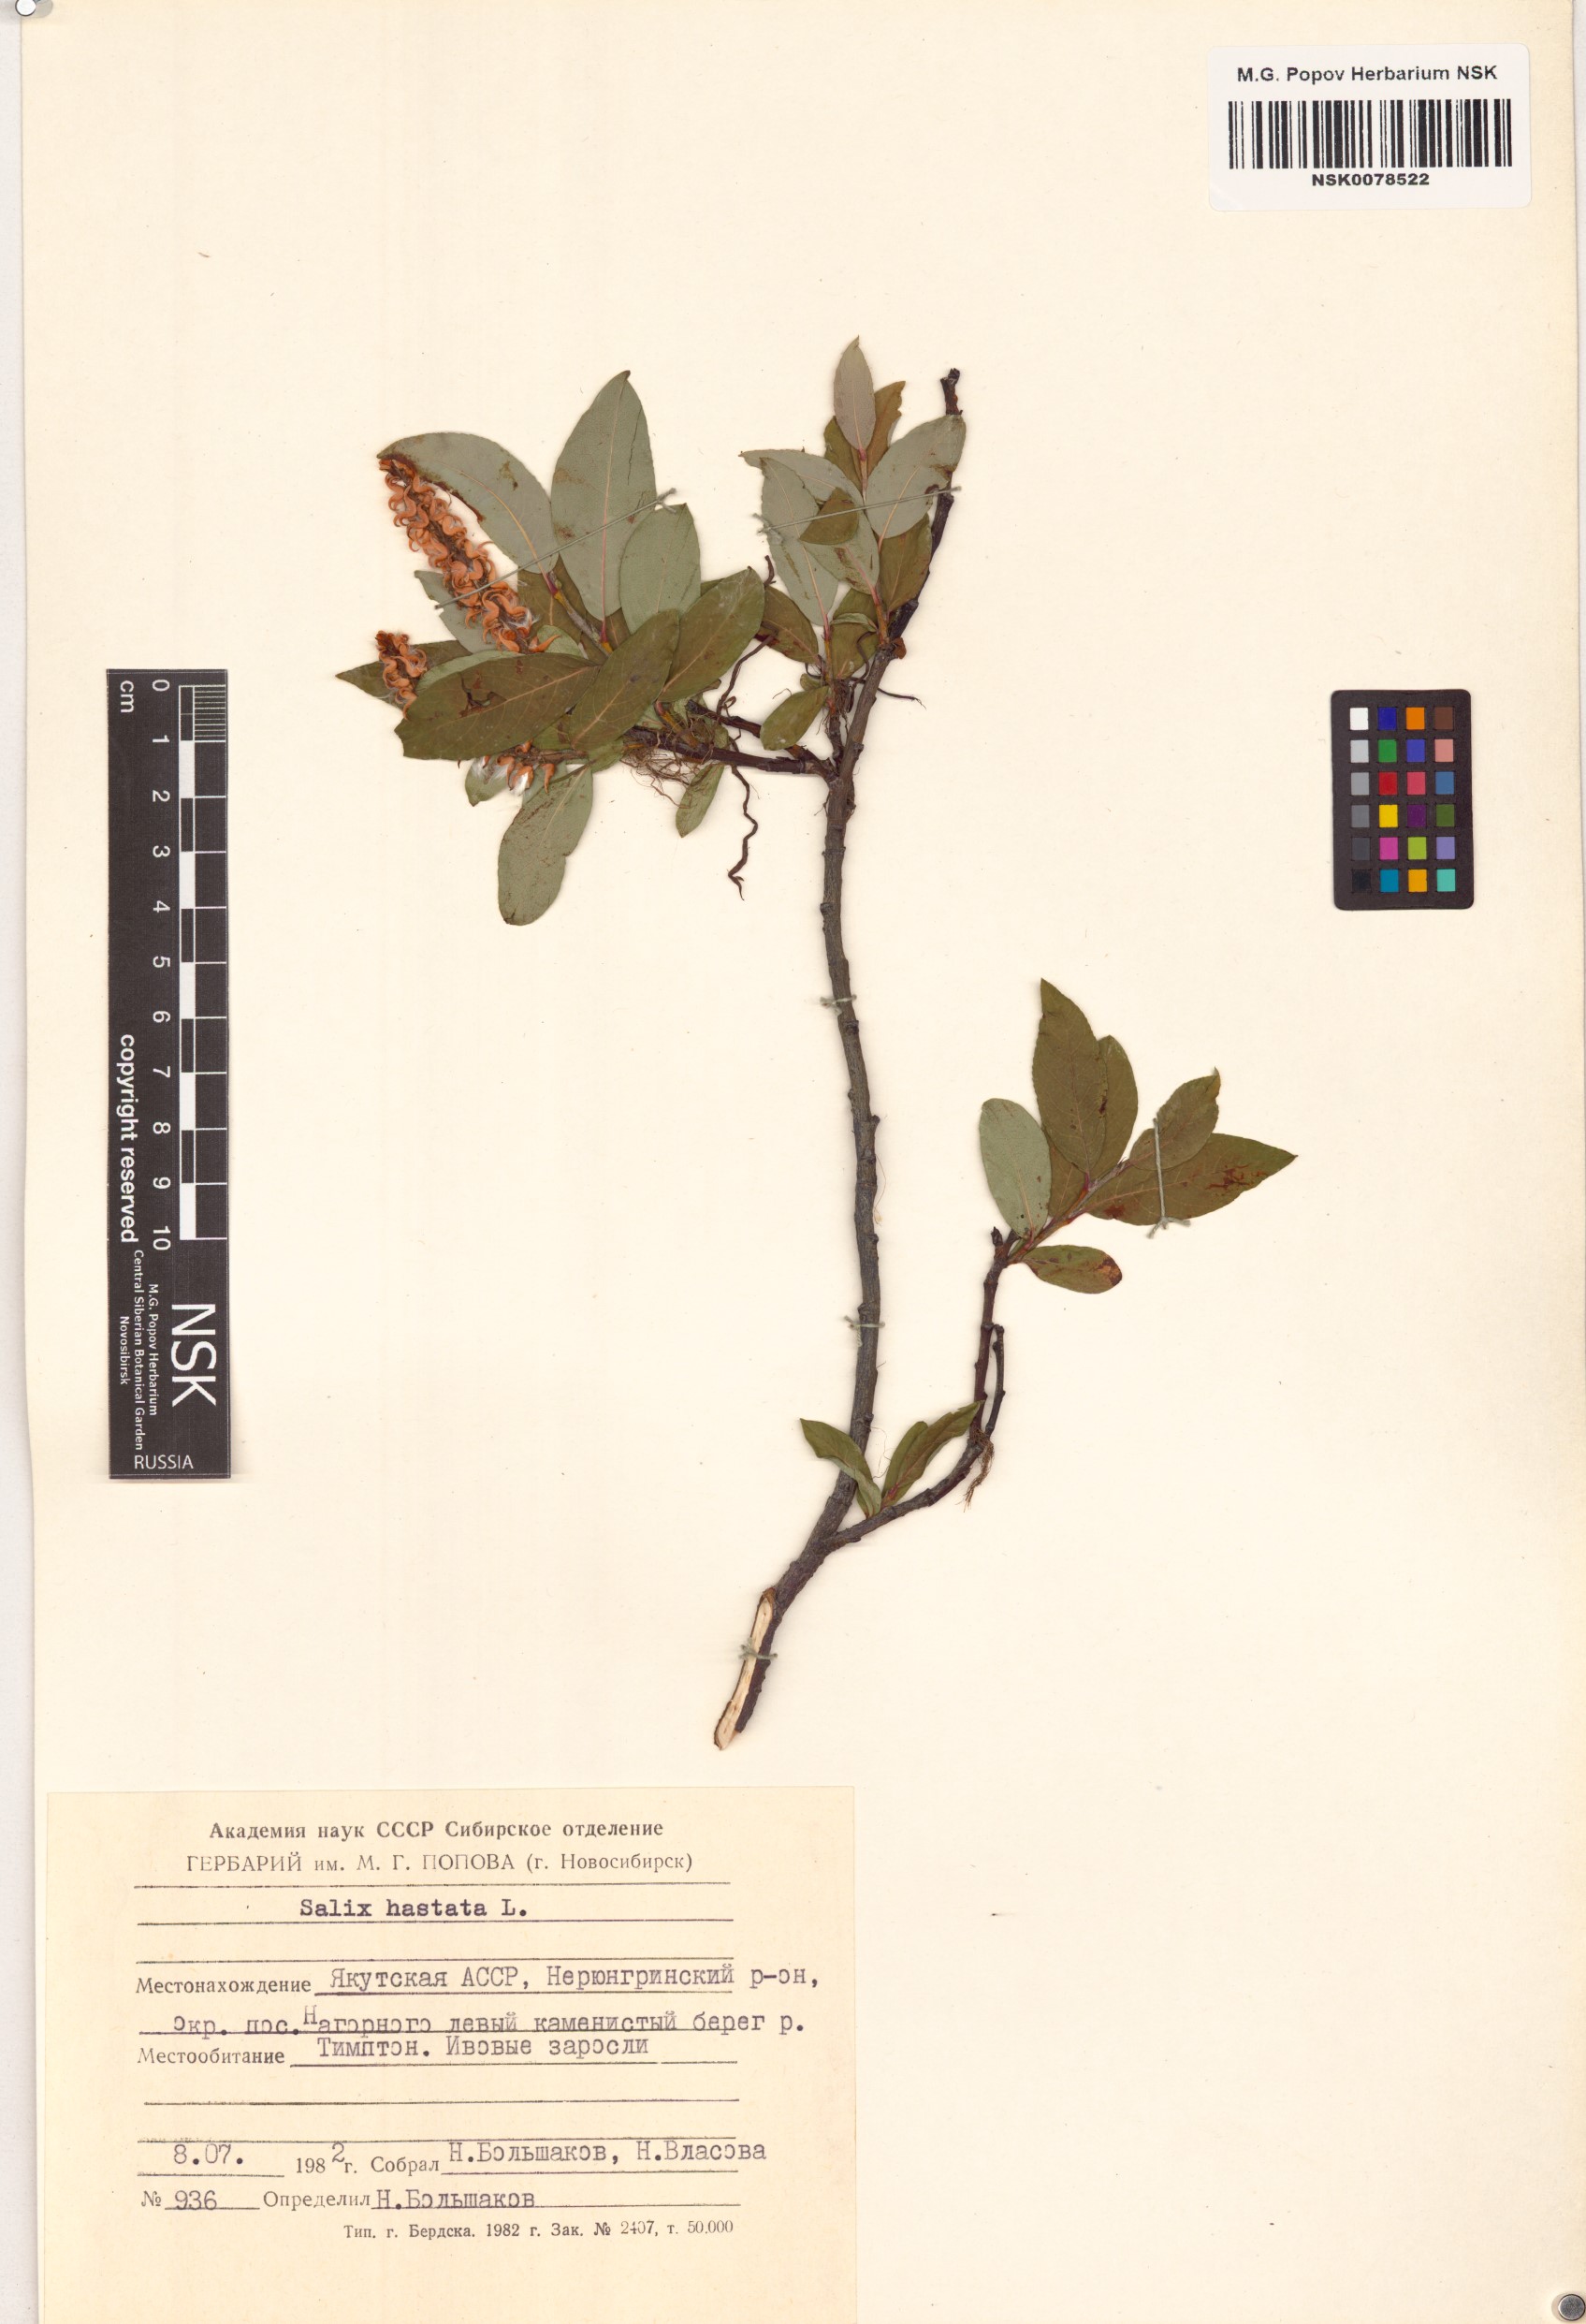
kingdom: Plantae
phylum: Tracheophyta
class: Magnoliopsida
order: Malpighiales
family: Salicaceae
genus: Salix
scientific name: Salix hastata
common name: Halberd willow
